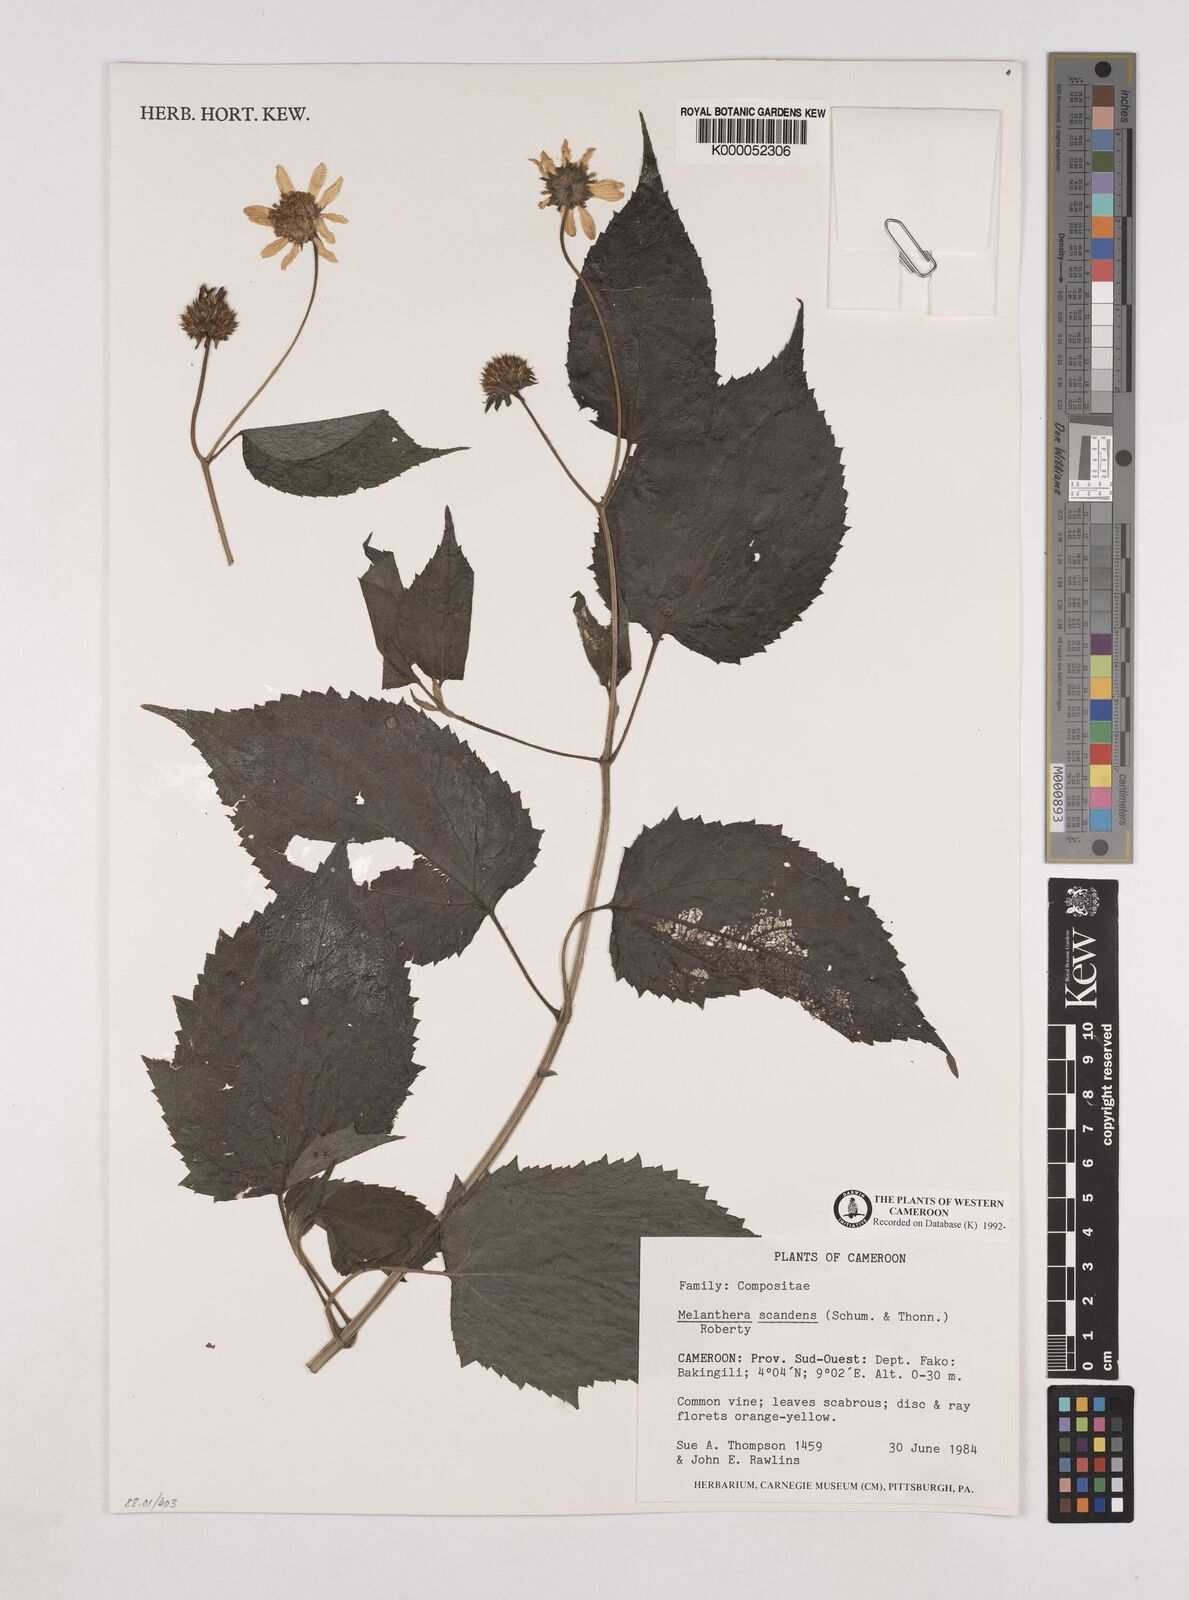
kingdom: Plantae
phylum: Tracheophyta
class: Magnoliopsida
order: Asterales
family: Asteraceae
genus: Melanthera
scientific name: Melanthera
